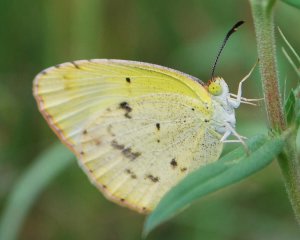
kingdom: Animalia
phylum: Arthropoda
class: Insecta
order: Lepidoptera
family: Pieridae
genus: Pyrisitia
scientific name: Pyrisitia lisa
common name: Little Yellow
